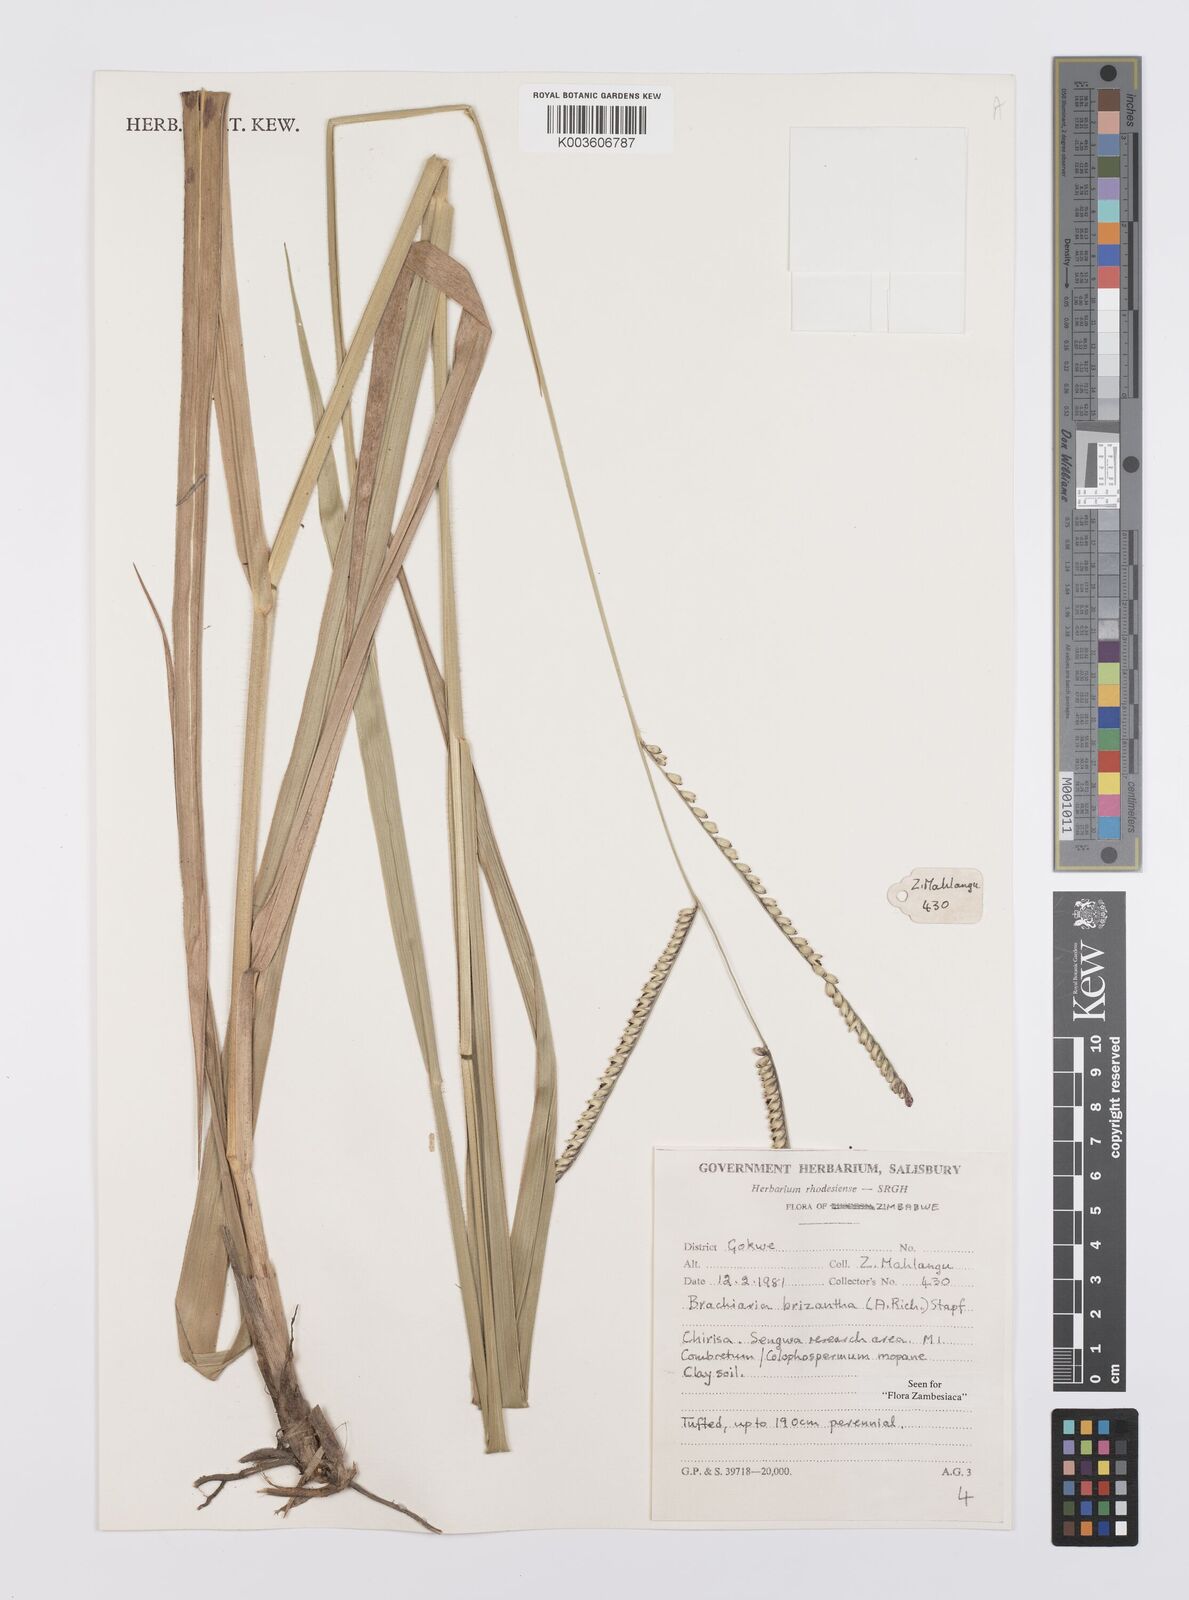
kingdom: Plantae
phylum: Tracheophyta
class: Liliopsida
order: Poales
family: Poaceae
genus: Urochloa
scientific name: Urochloa brizantha
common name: Palisade signalgrass
